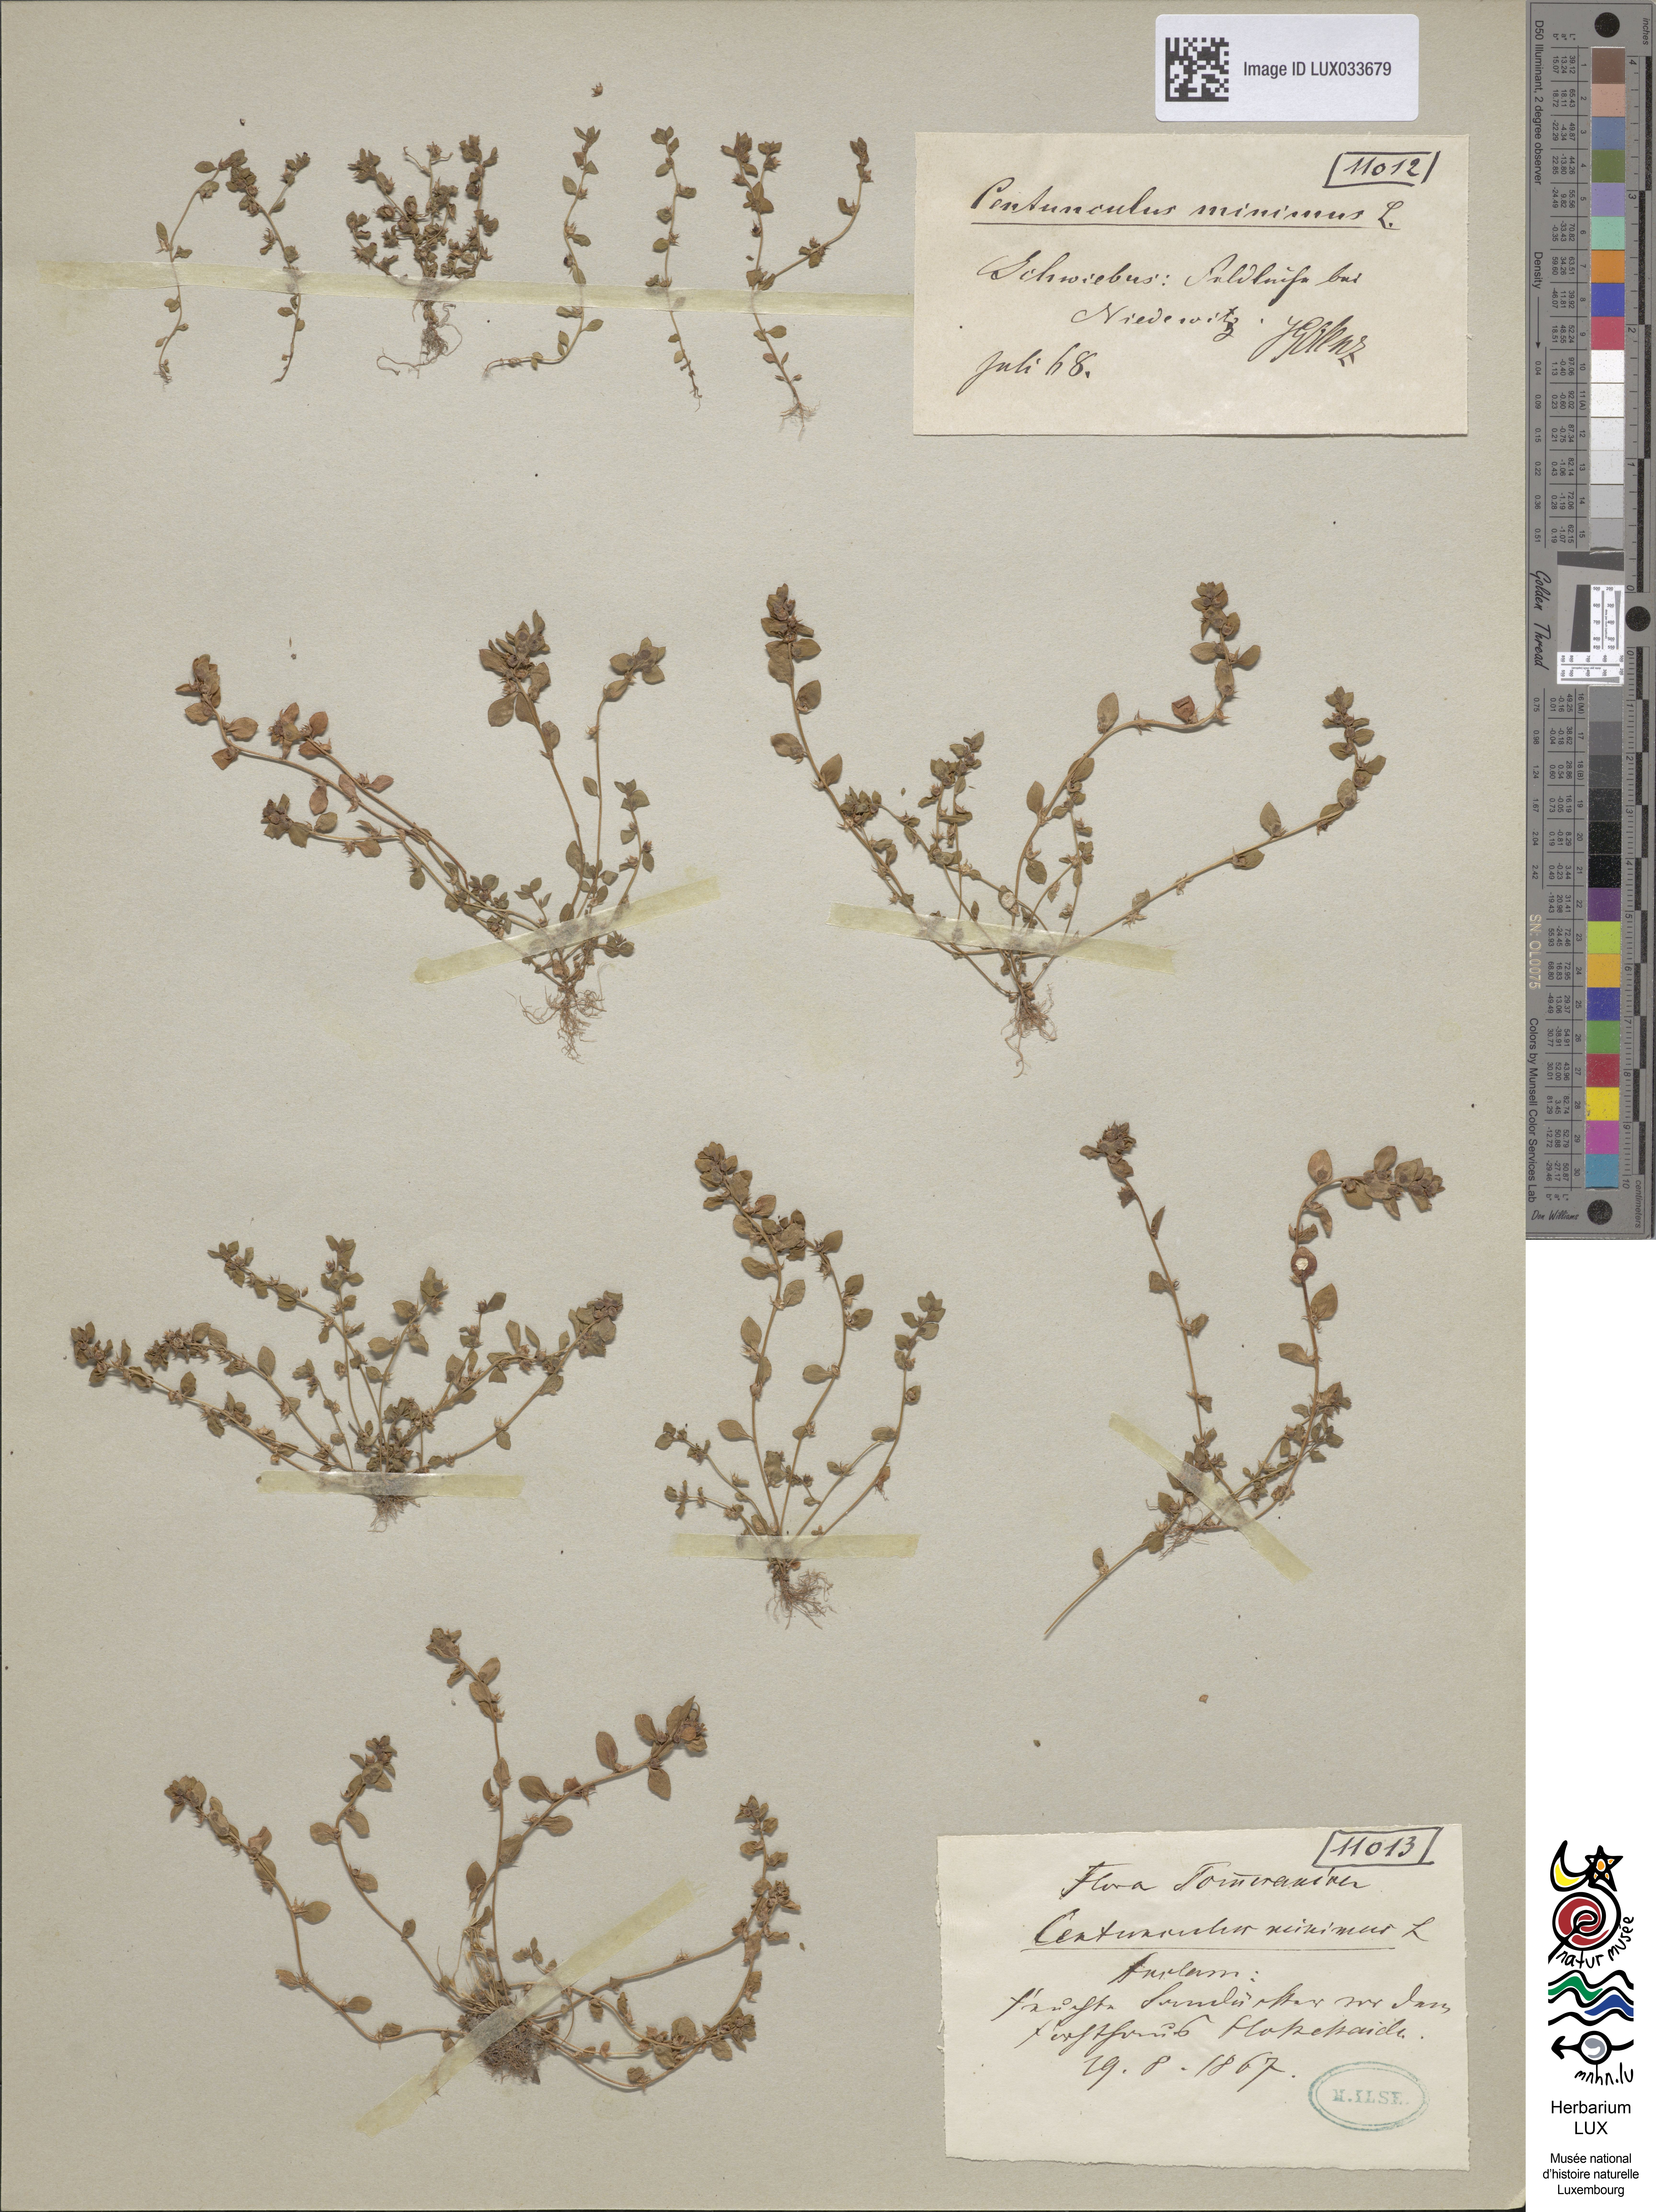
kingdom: Plantae
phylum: Tracheophyta
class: Magnoliopsida
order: Ericales
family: Primulaceae
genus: Lysimachia
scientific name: Lysimachia minima
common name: Chaffweed
